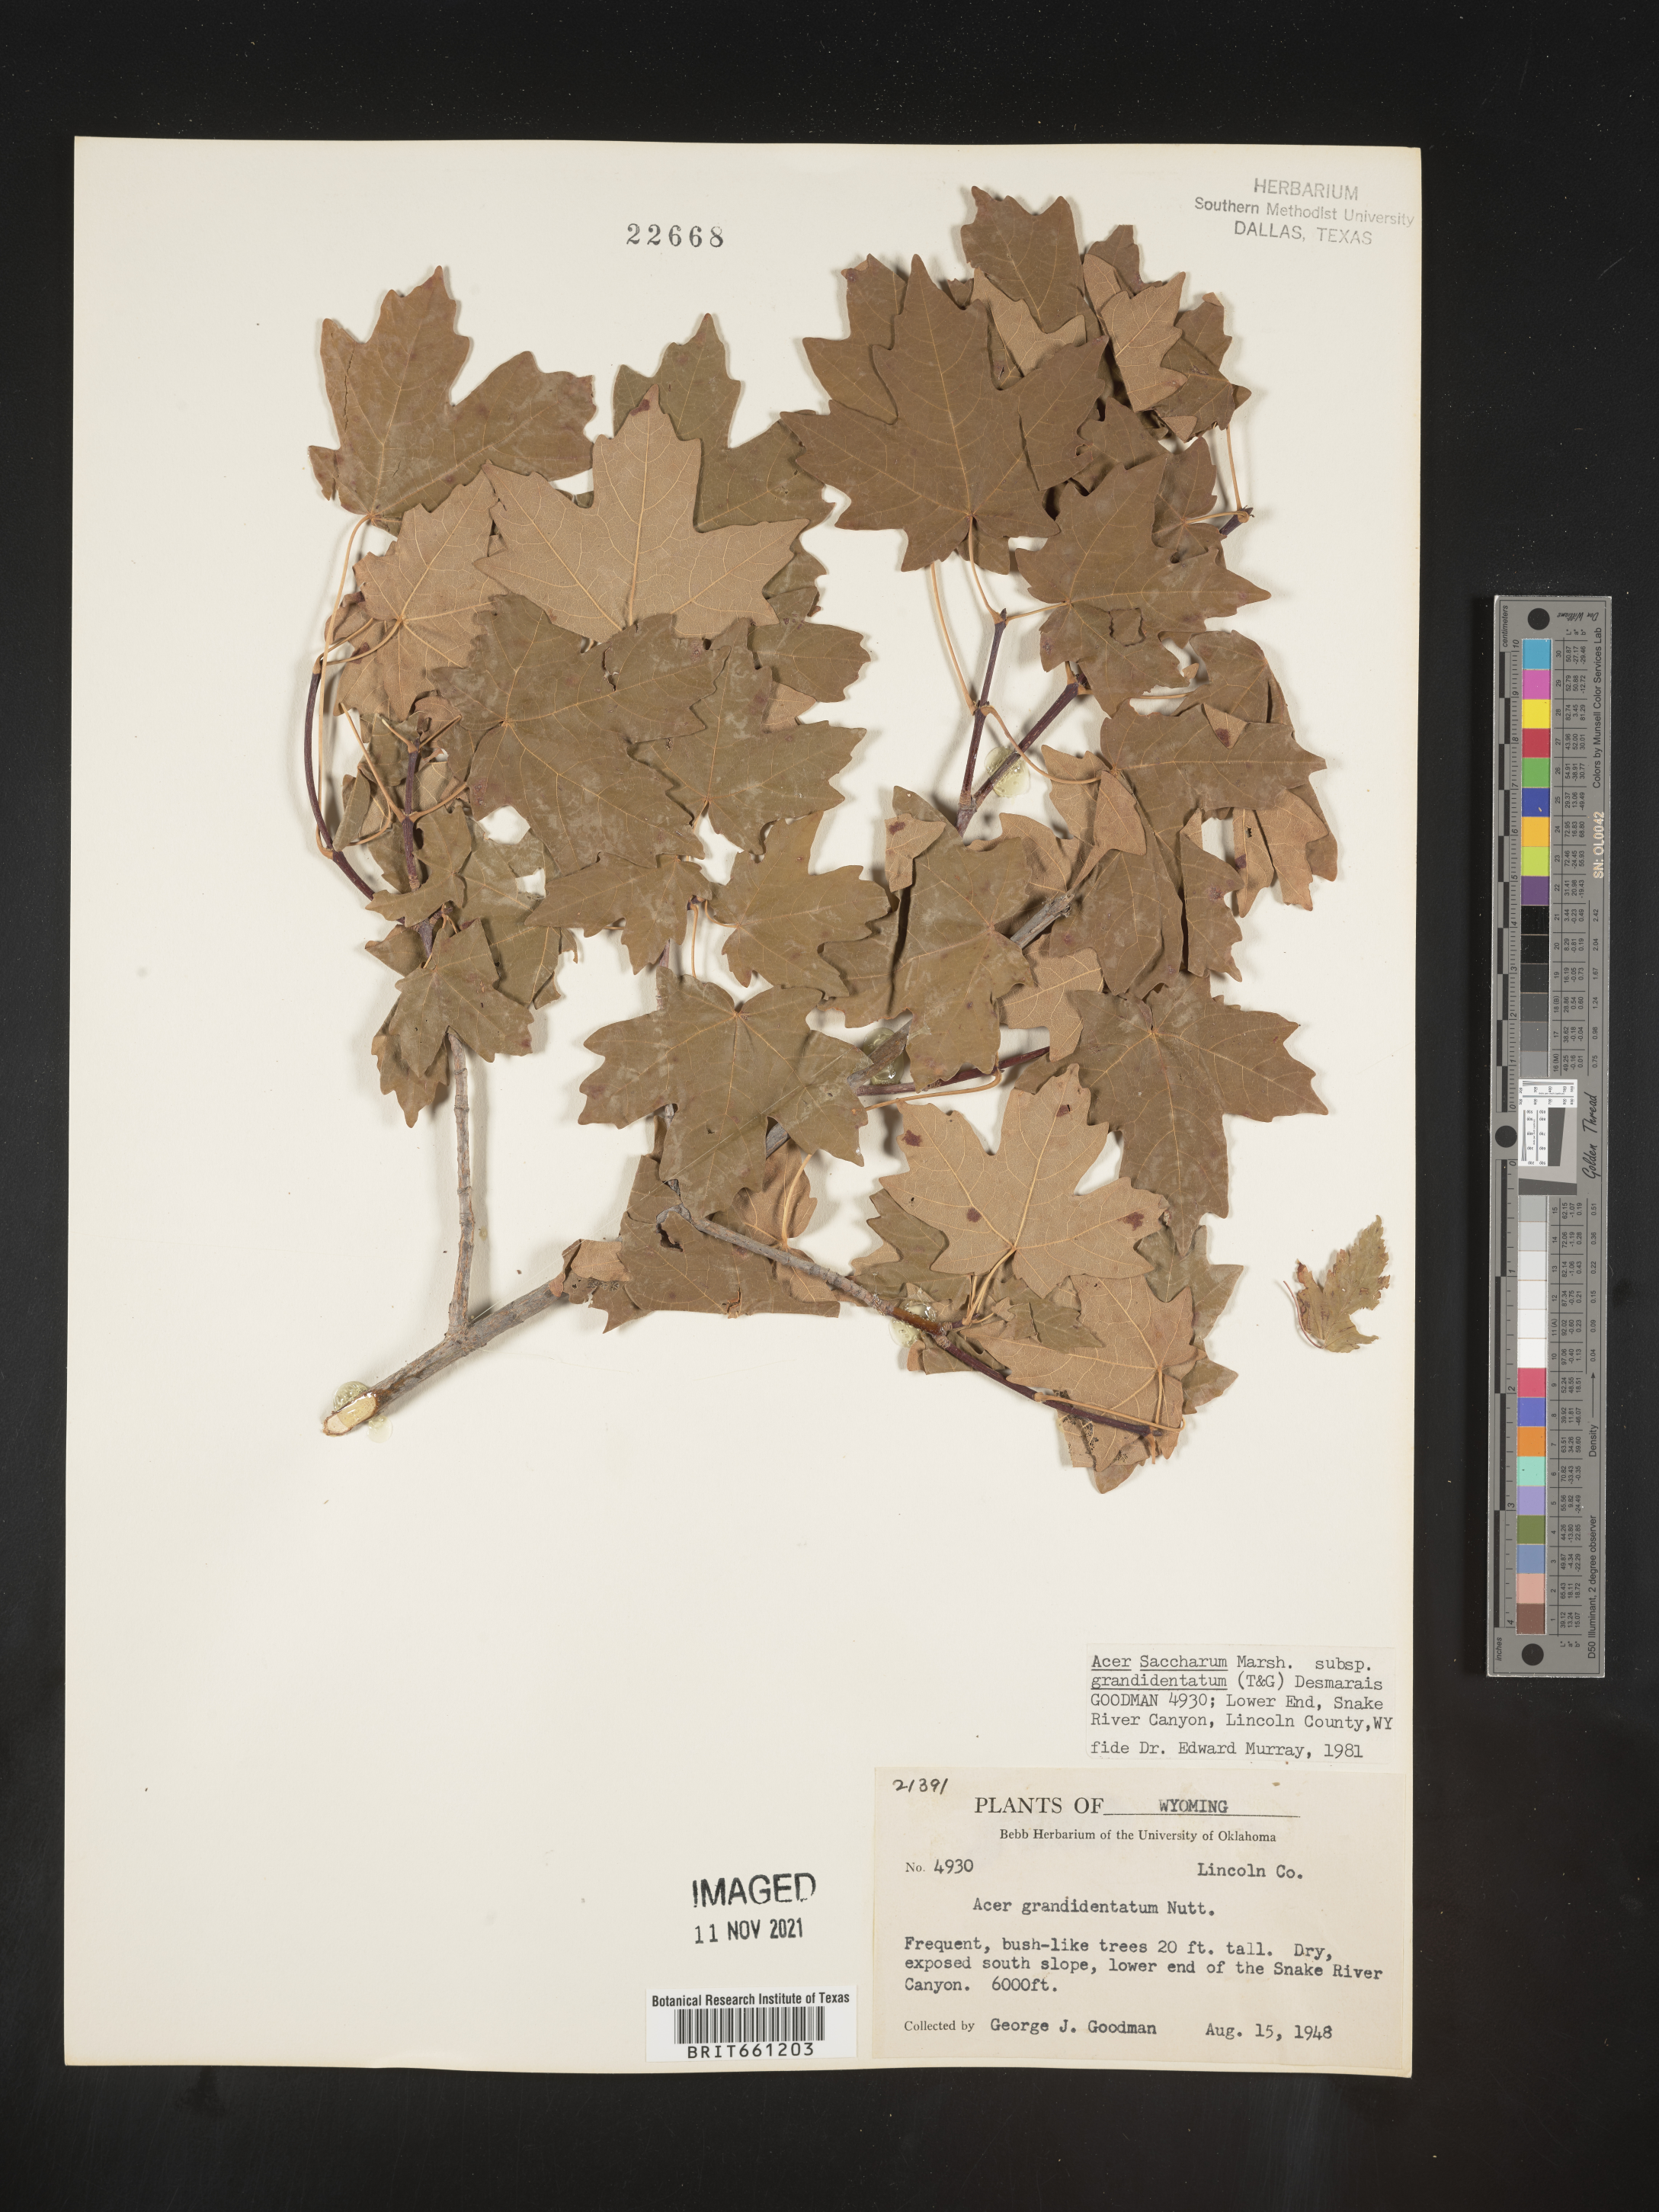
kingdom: Plantae
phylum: Tracheophyta
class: Magnoliopsida
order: Sapindales
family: Sapindaceae
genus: Acer
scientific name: Acer grandidentatum
